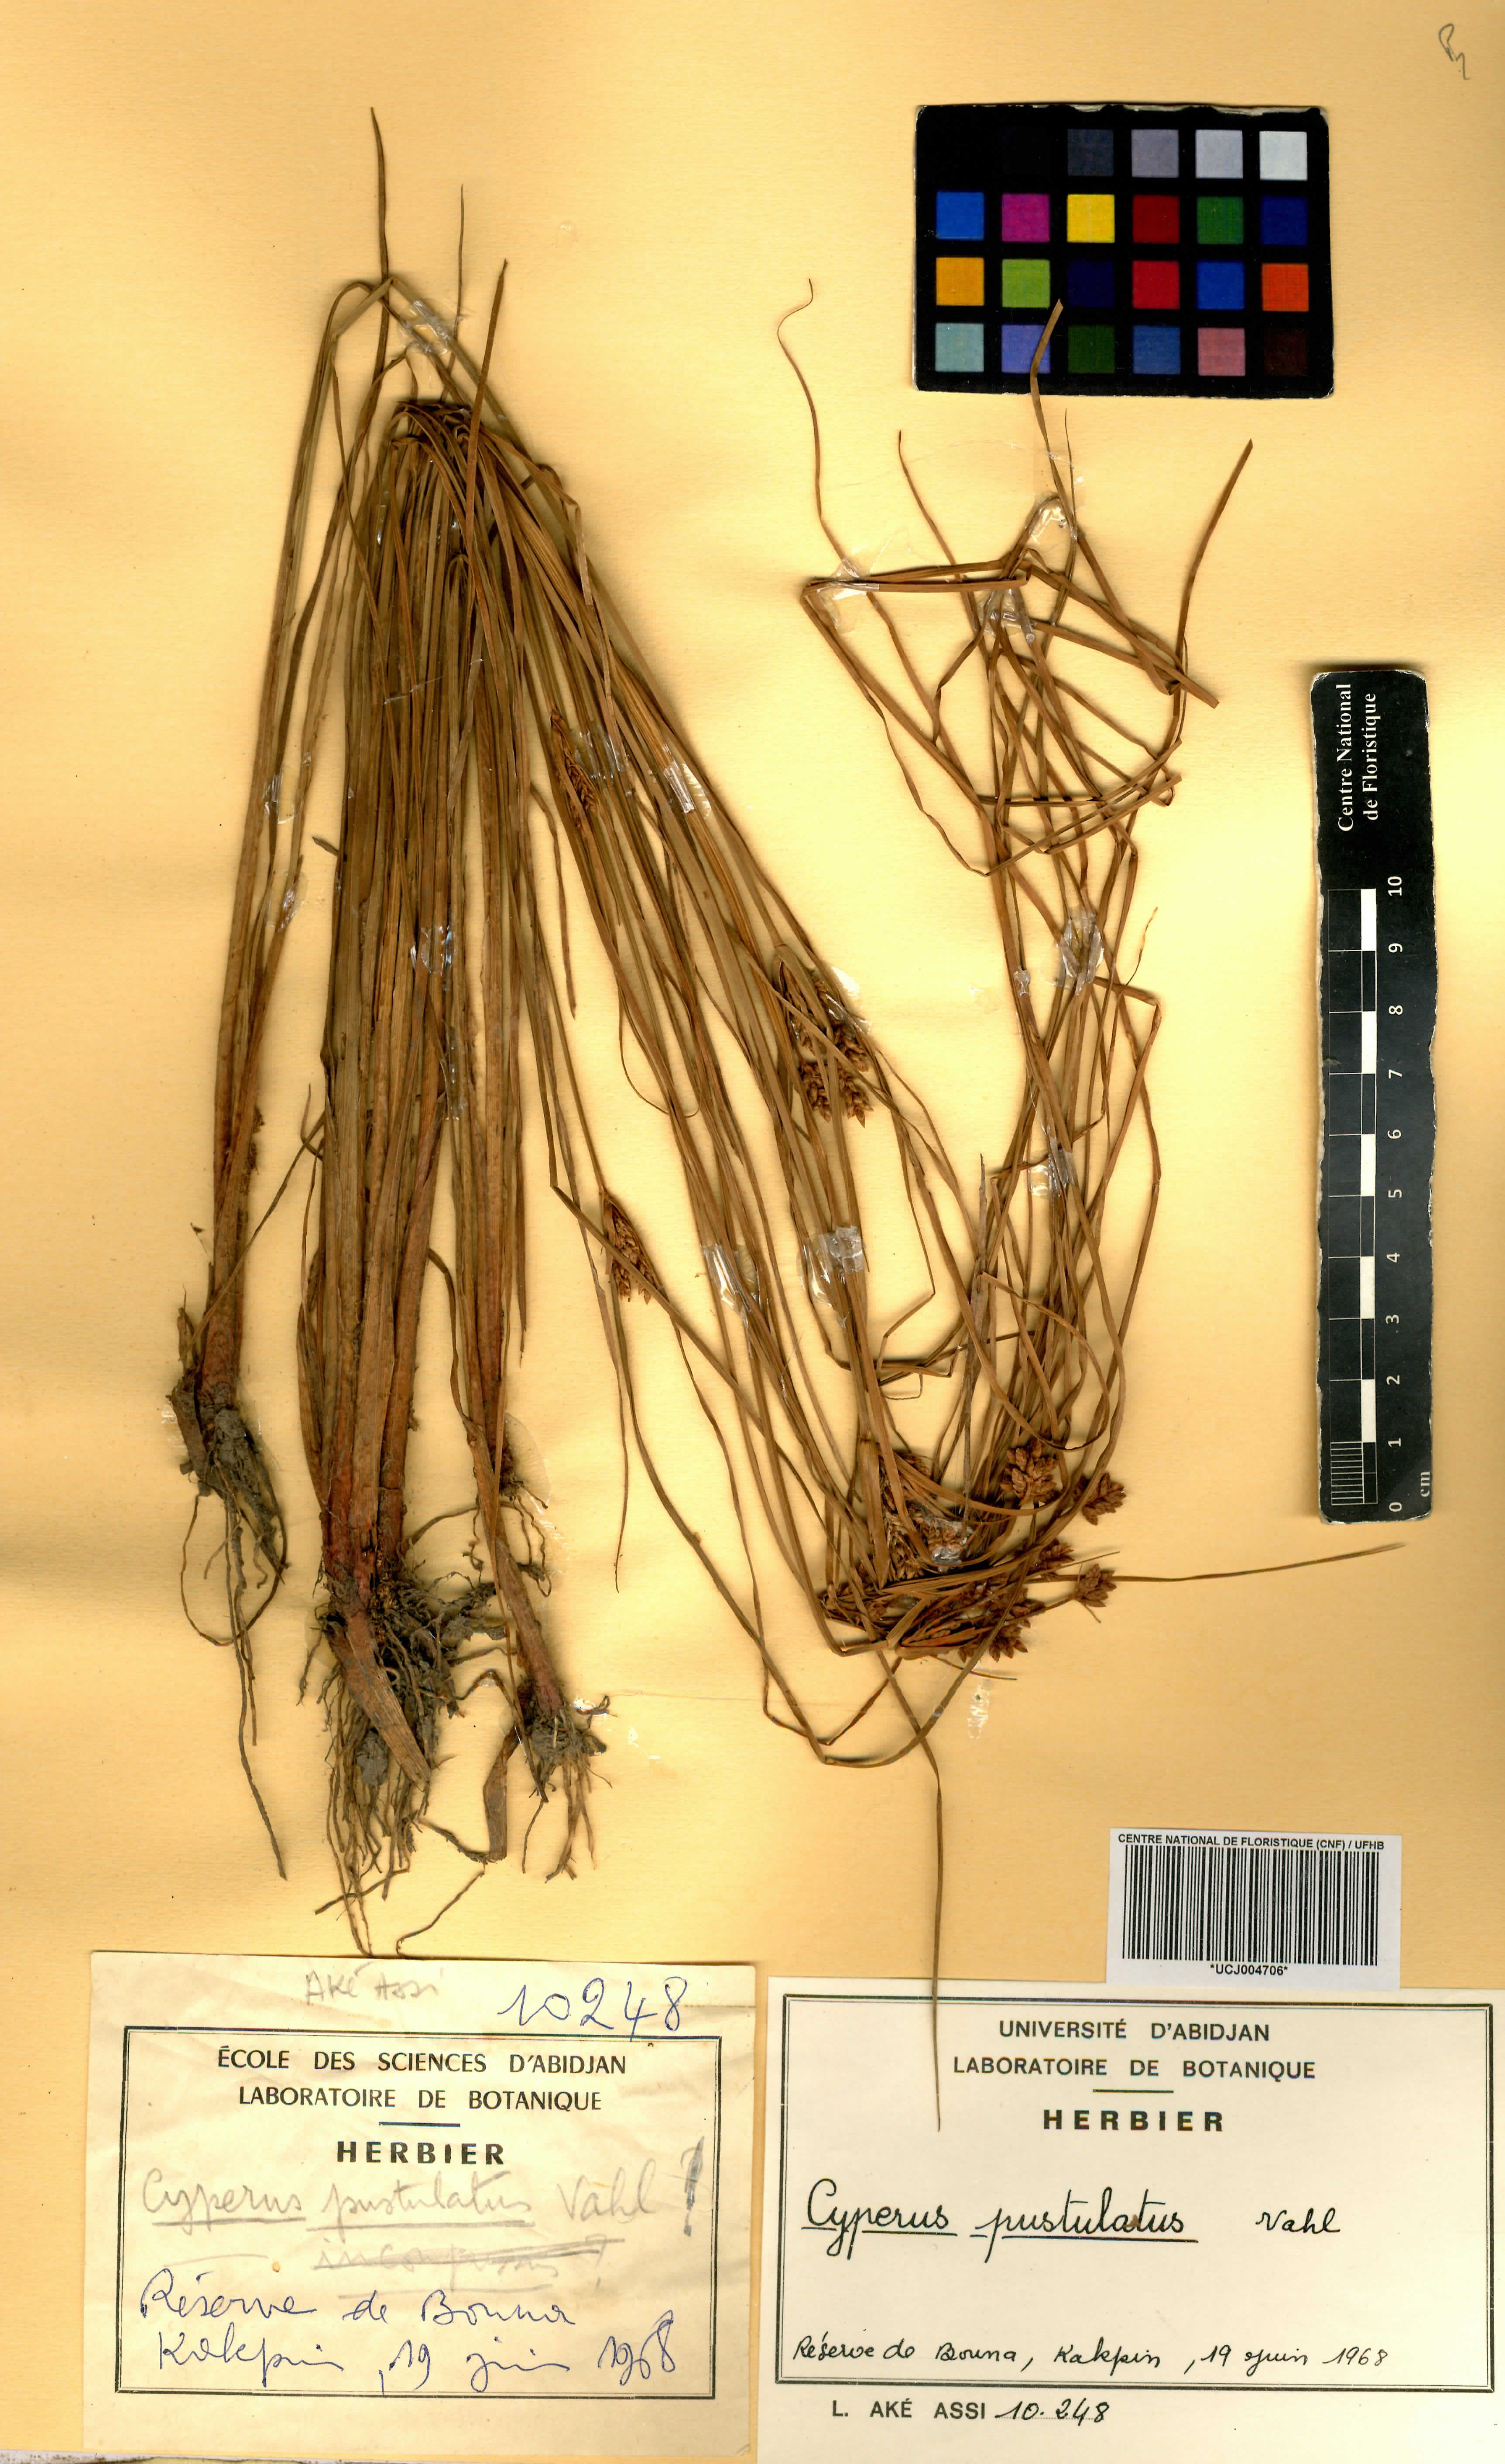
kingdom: Plantae
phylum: Tracheophyta
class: Liliopsida
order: Poales
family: Cyperaceae
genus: Cyperus
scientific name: Cyperus pustulatus
